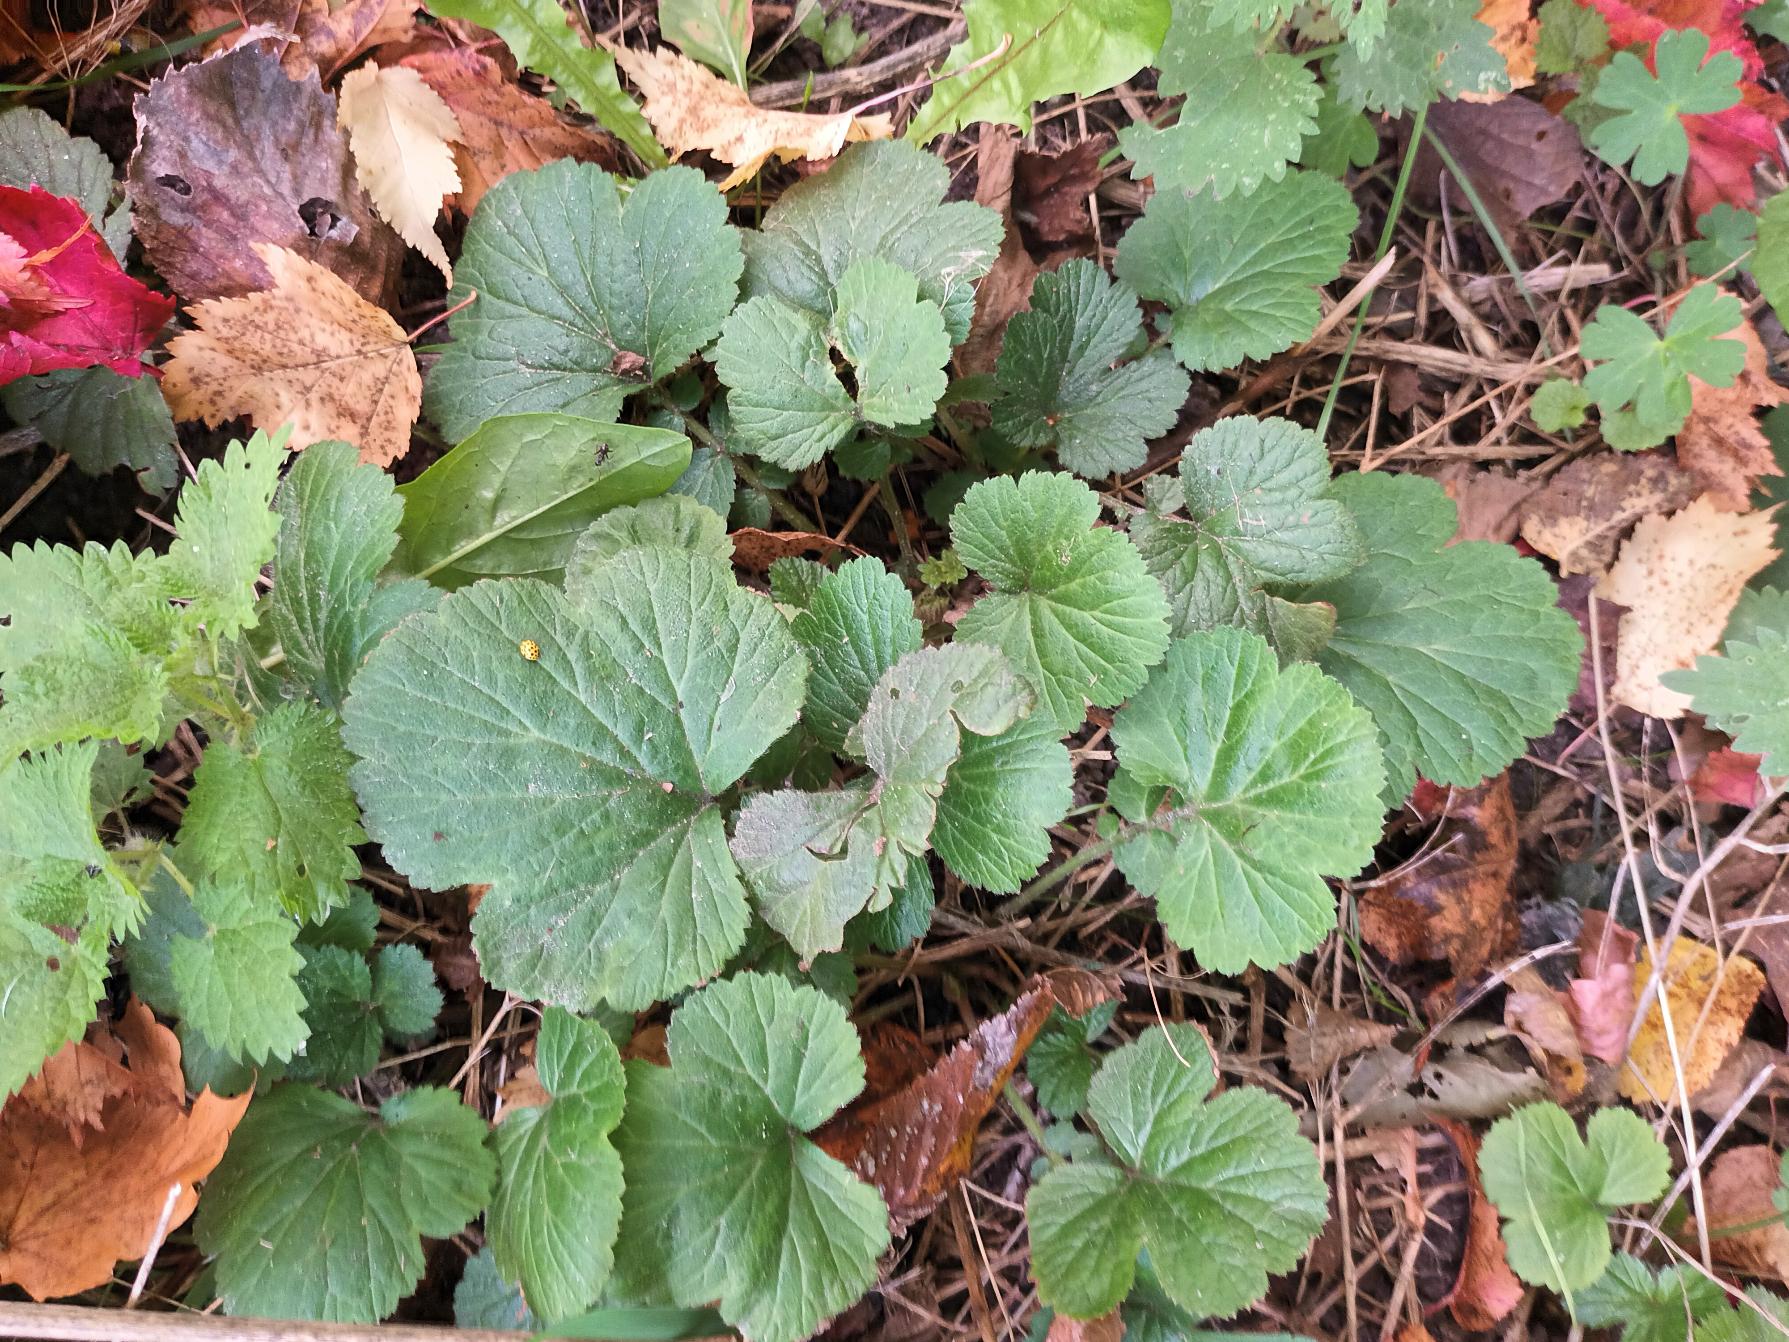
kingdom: Plantae
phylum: Tracheophyta
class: Magnoliopsida
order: Rosales
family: Rosaceae
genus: Geum
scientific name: Geum urbanum
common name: Feber-nellikerod
